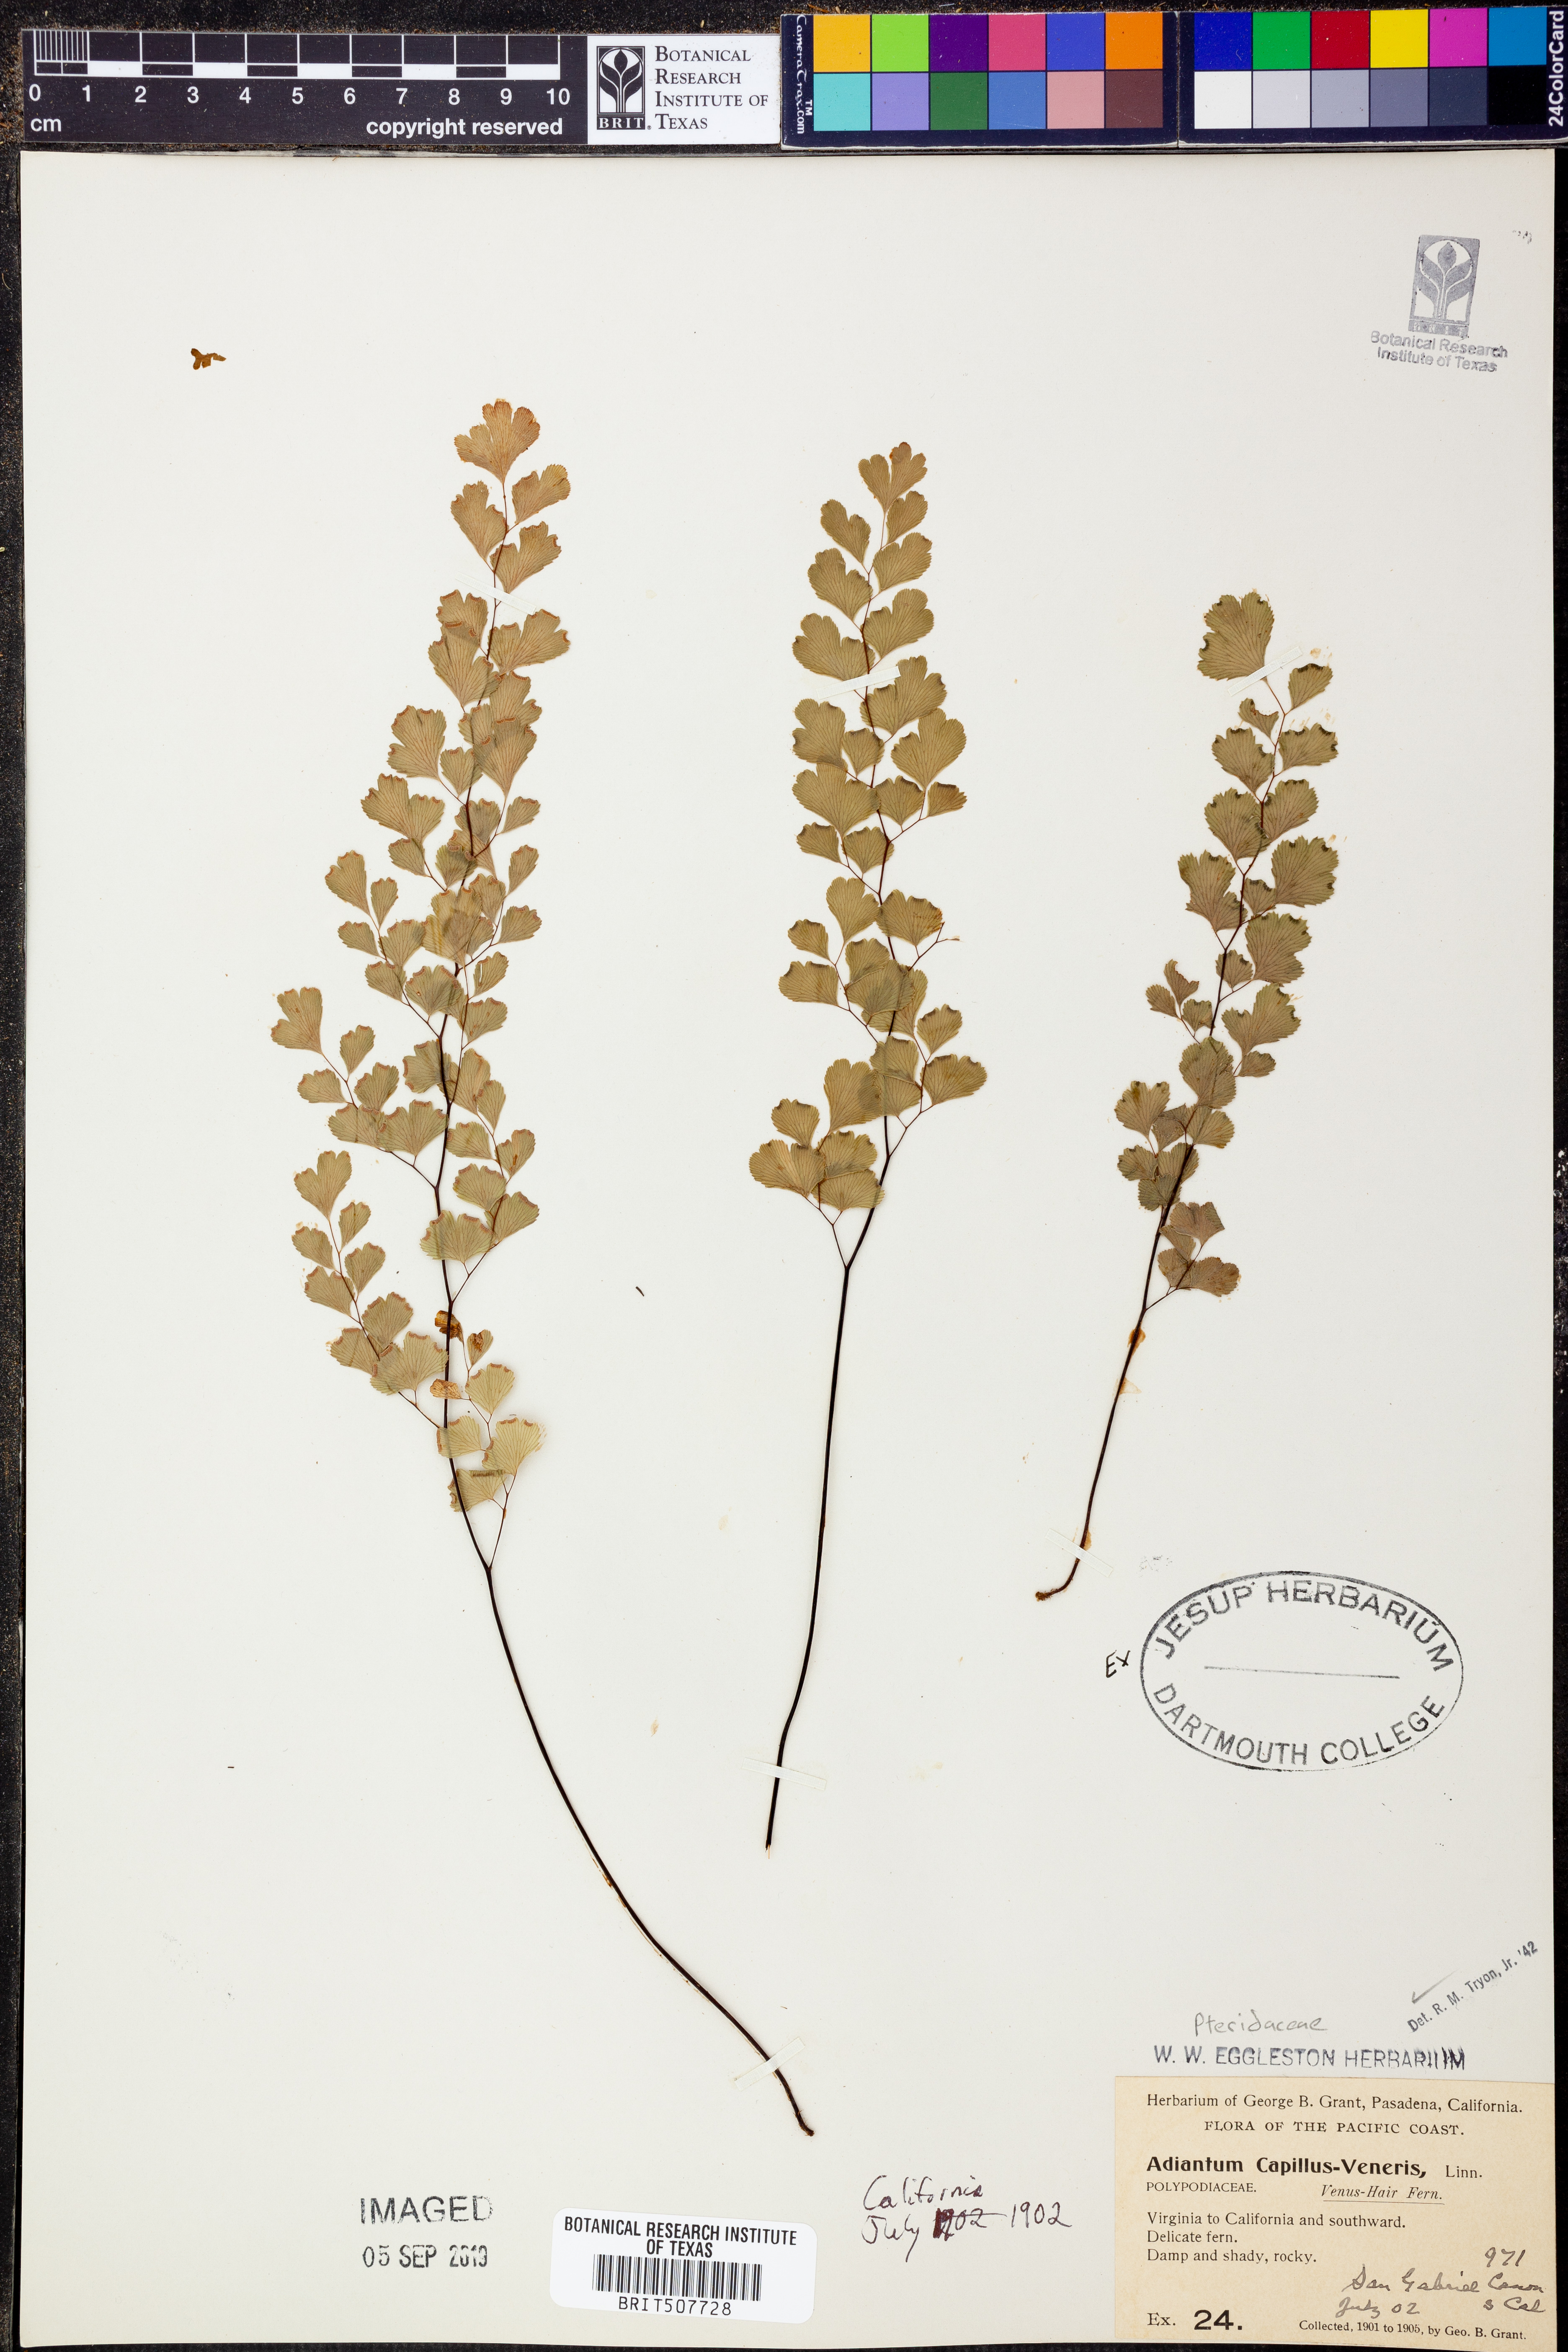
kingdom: Plantae
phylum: Tracheophyta
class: Polypodiopsida
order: Polypodiales
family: Pteridaceae
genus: Adiantum
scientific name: Adiantum capillus-veneris
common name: Maidenhair fern
